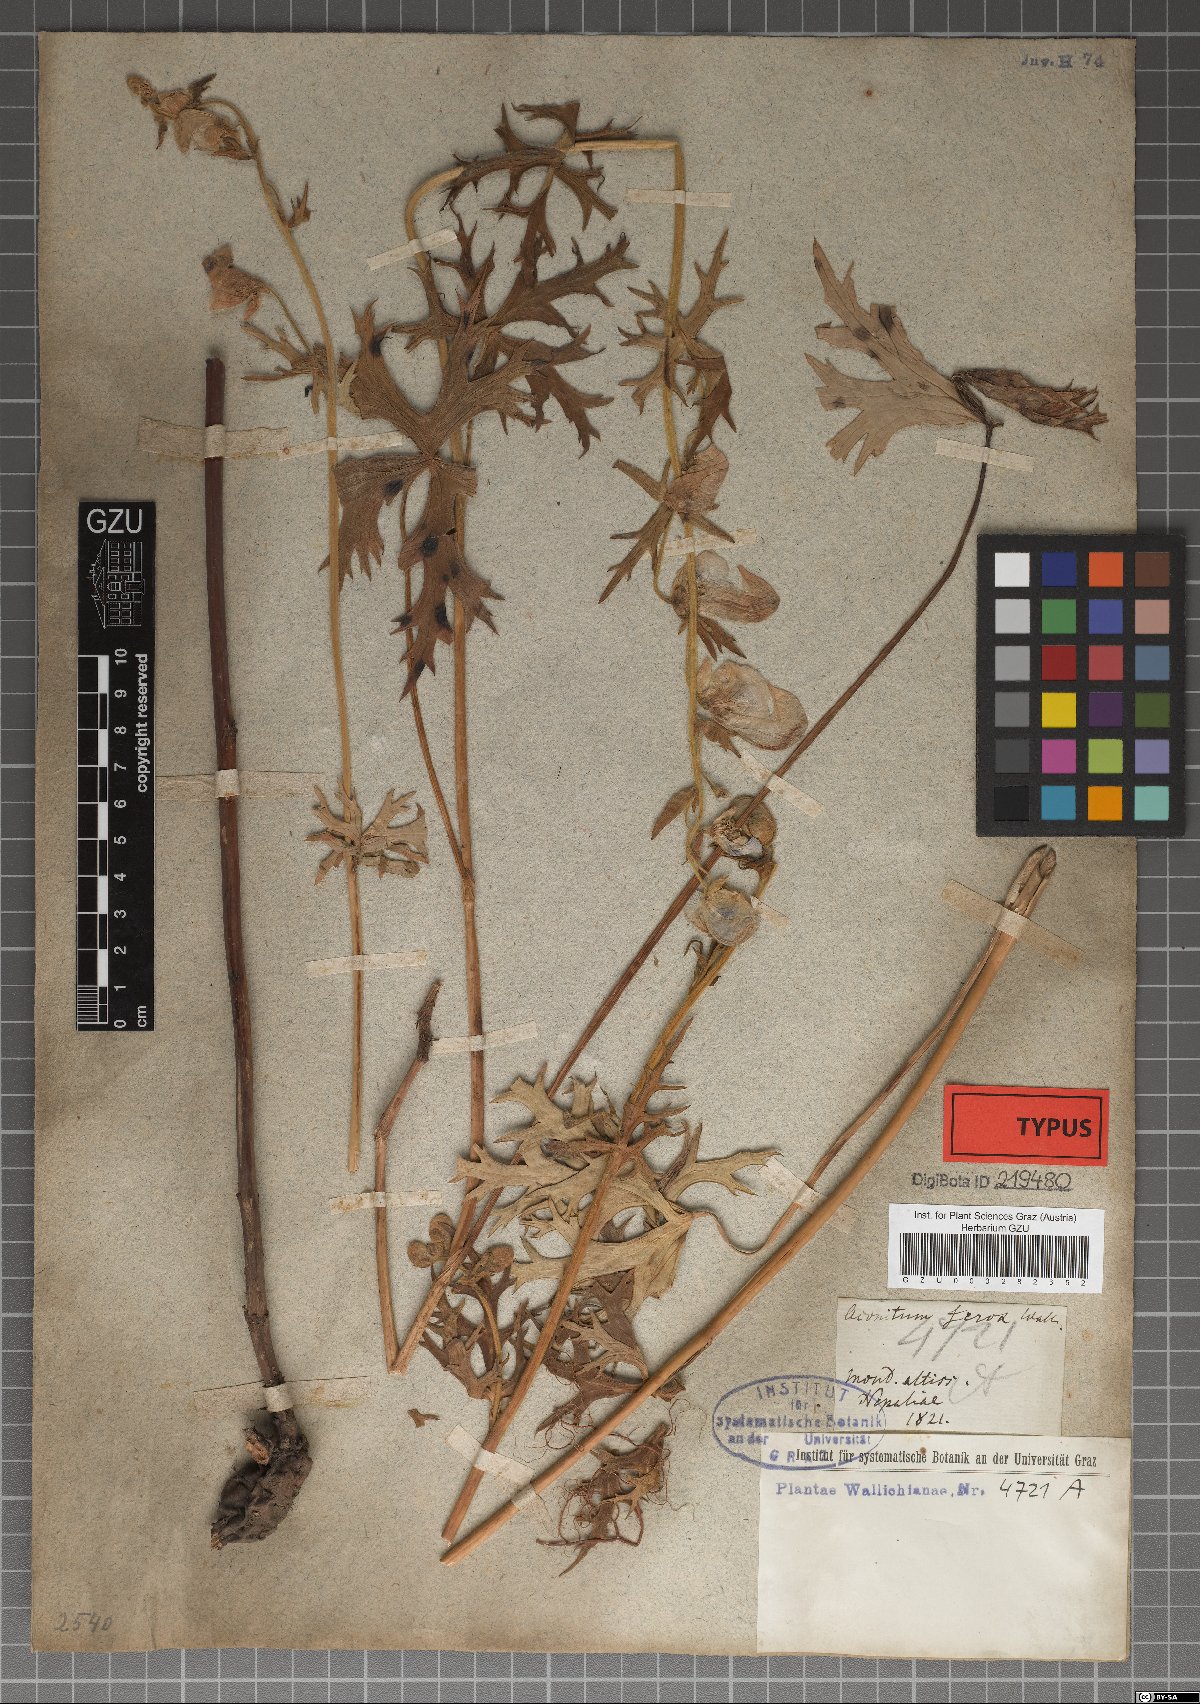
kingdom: Plantae
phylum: Tracheophyta
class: Magnoliopsida
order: Ranunculales
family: Ranunculaceae
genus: Aconitum
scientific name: Aconitum ferox
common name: Indian aconite
